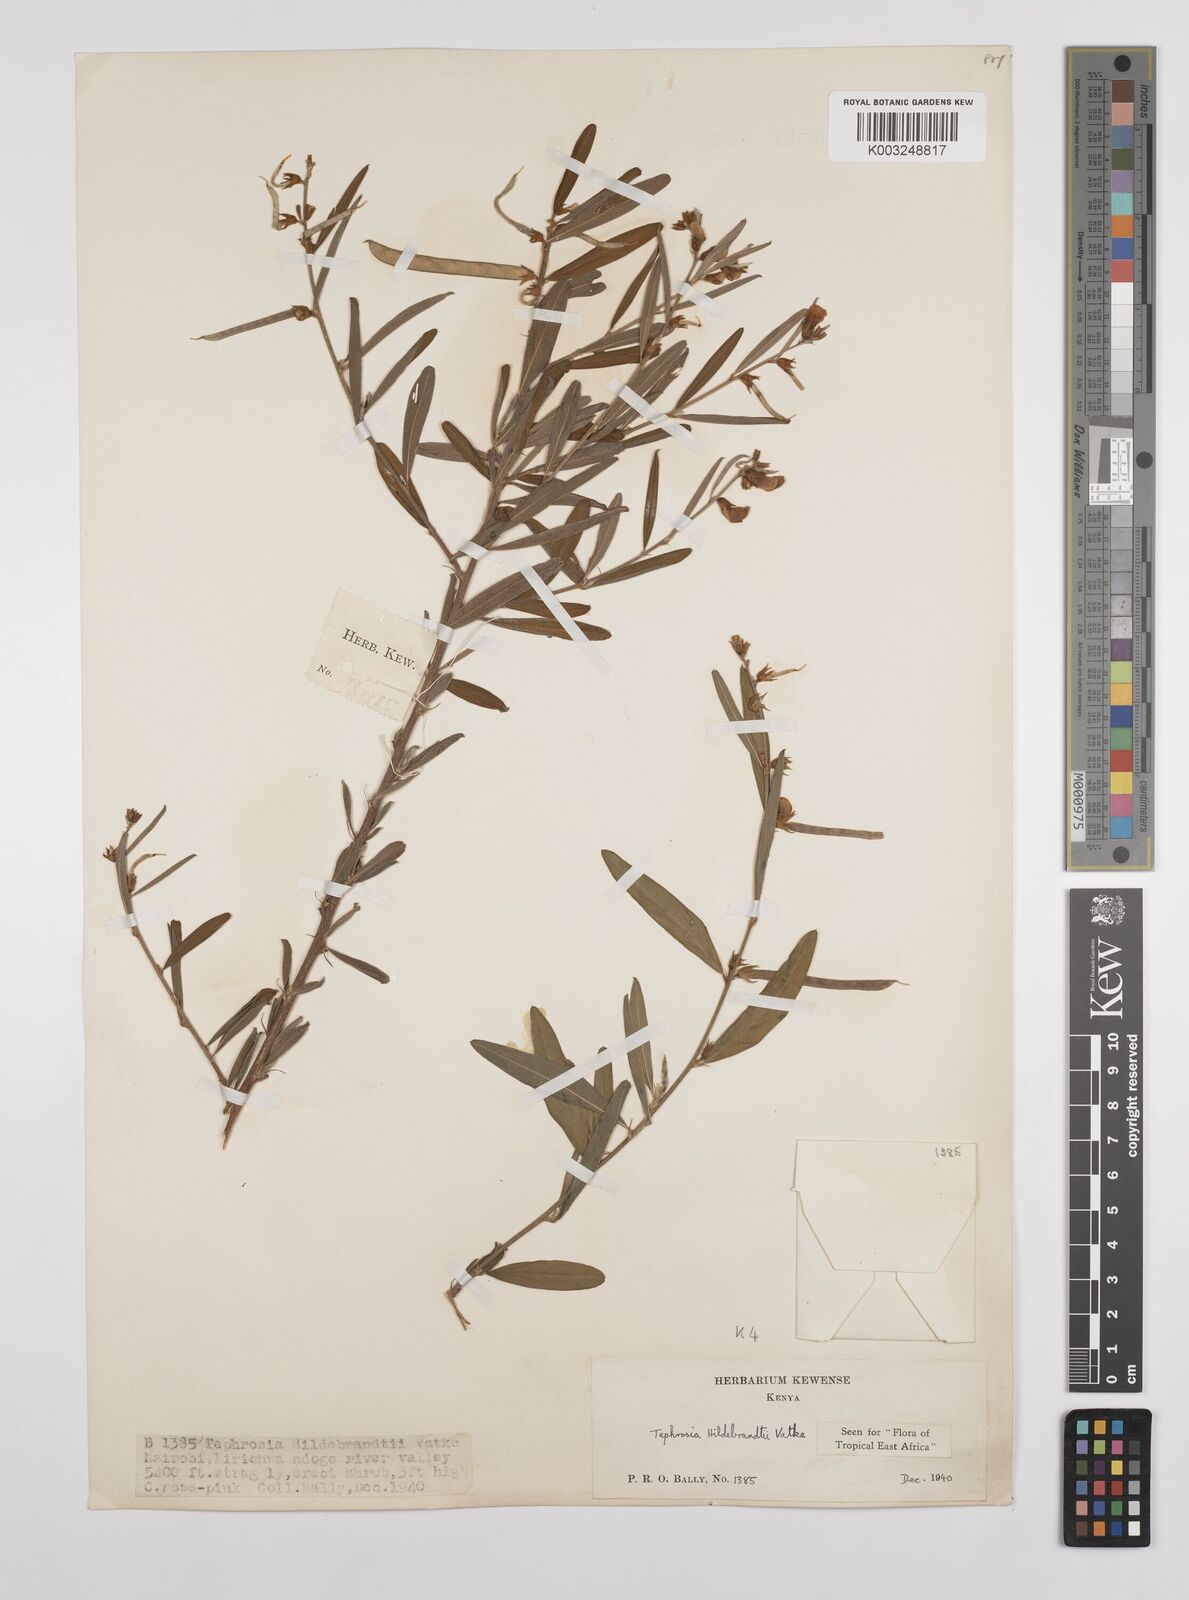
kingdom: Plantae
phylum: Tracheophyta
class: Magnoliopsida
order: Fabales
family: Fabaceae
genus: Tephrosia
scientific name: Tephrosia hildebrandtii
